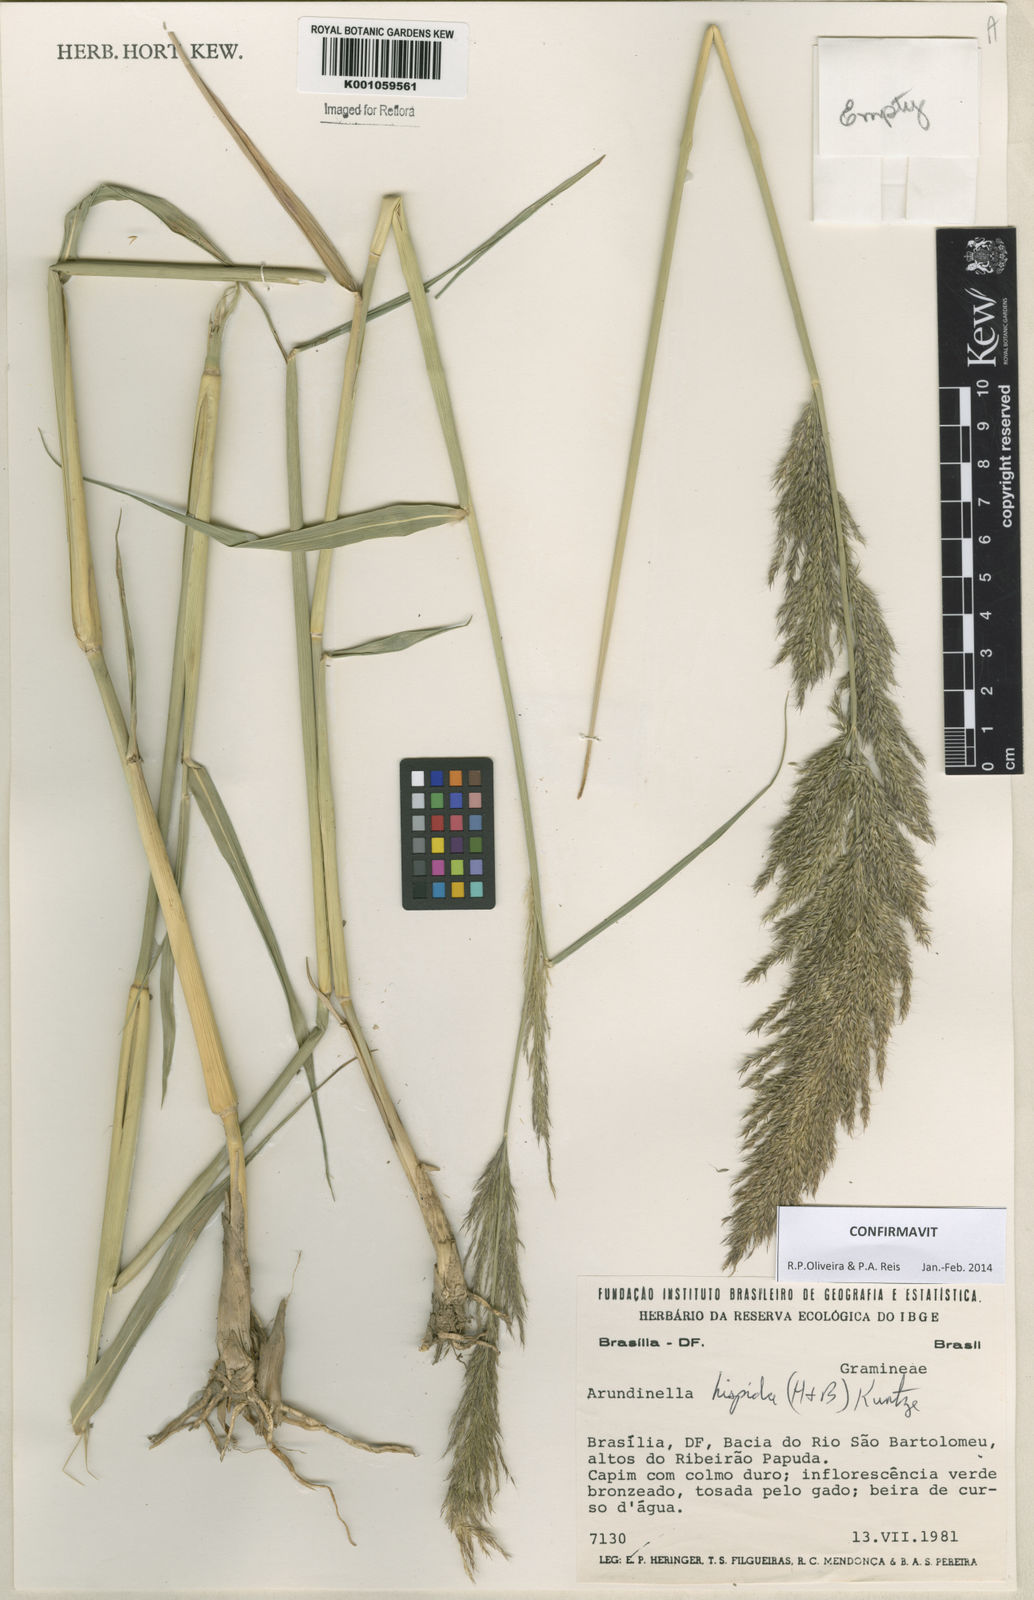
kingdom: Plantae
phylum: Tracheophyta
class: Liliopsida
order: Poales
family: Poaceae
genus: Arundinella
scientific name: Arundinella hispida
